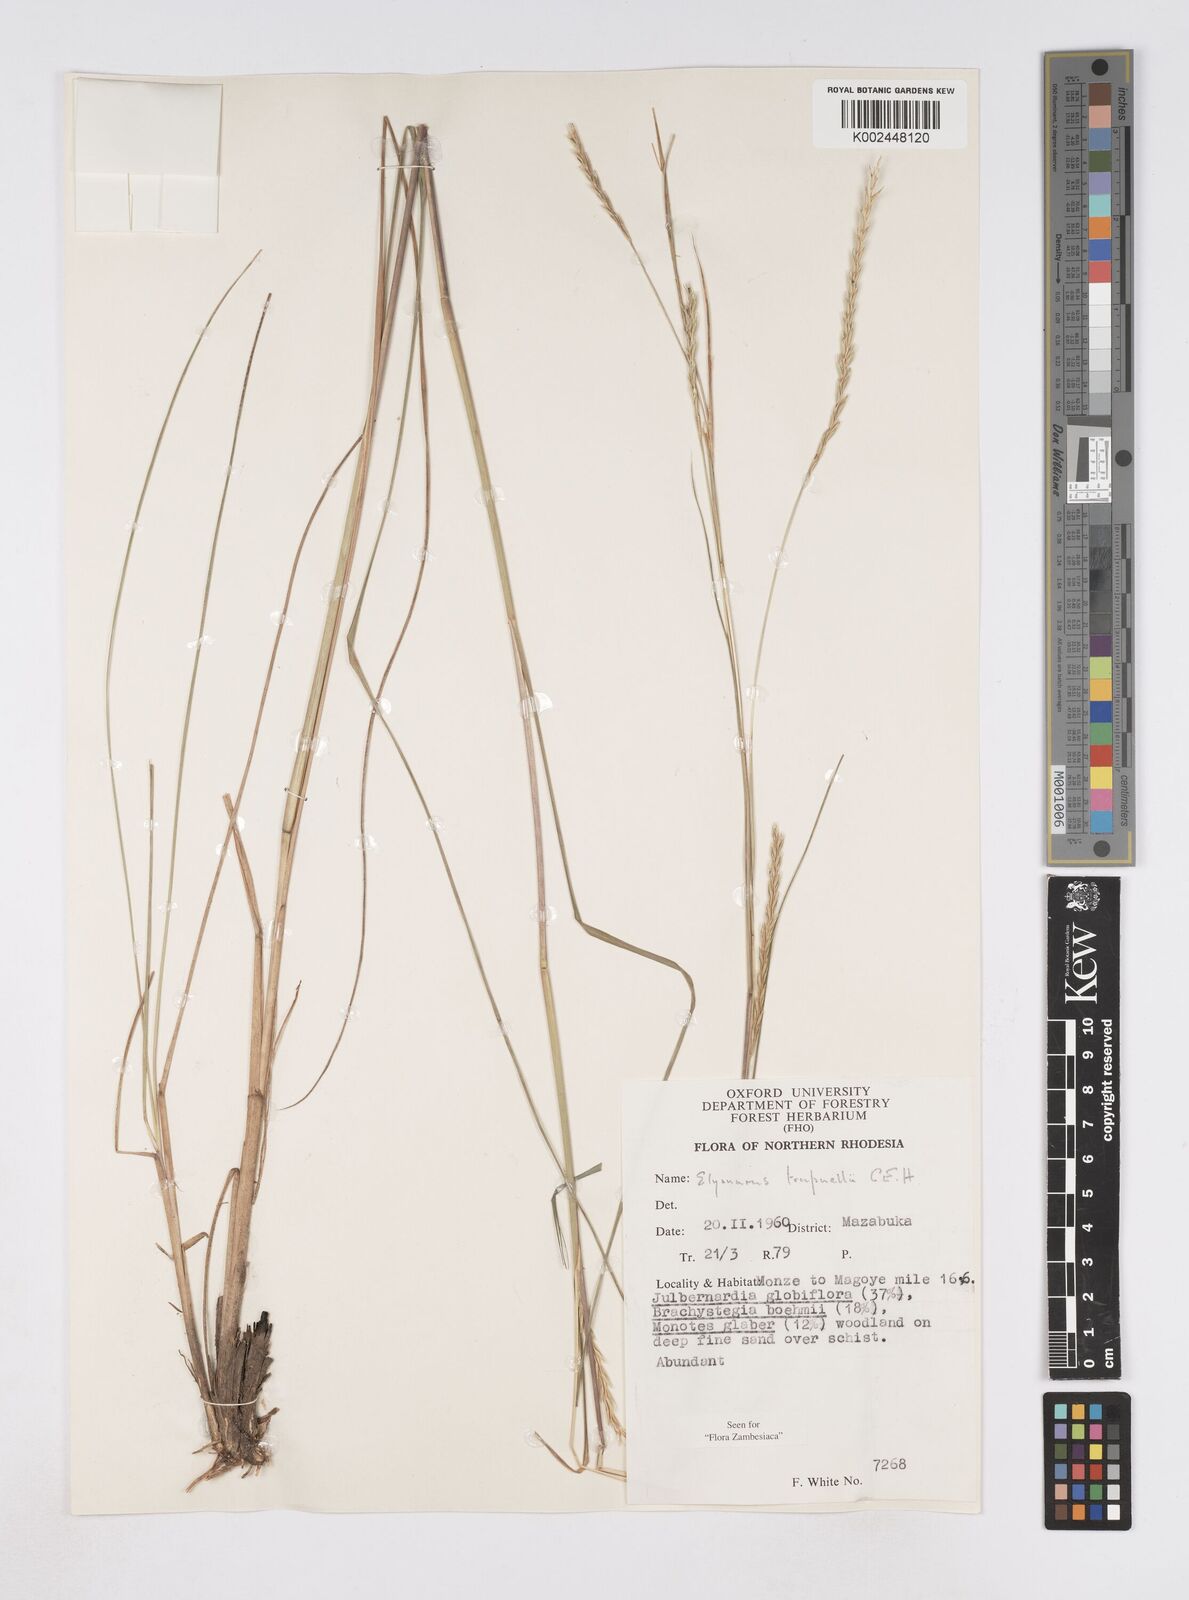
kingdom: Plantae
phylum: Tracheophyta
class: Liliopsida
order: Poales
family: Poaceae
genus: Elionurus
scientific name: Elionurus tripsacoides
